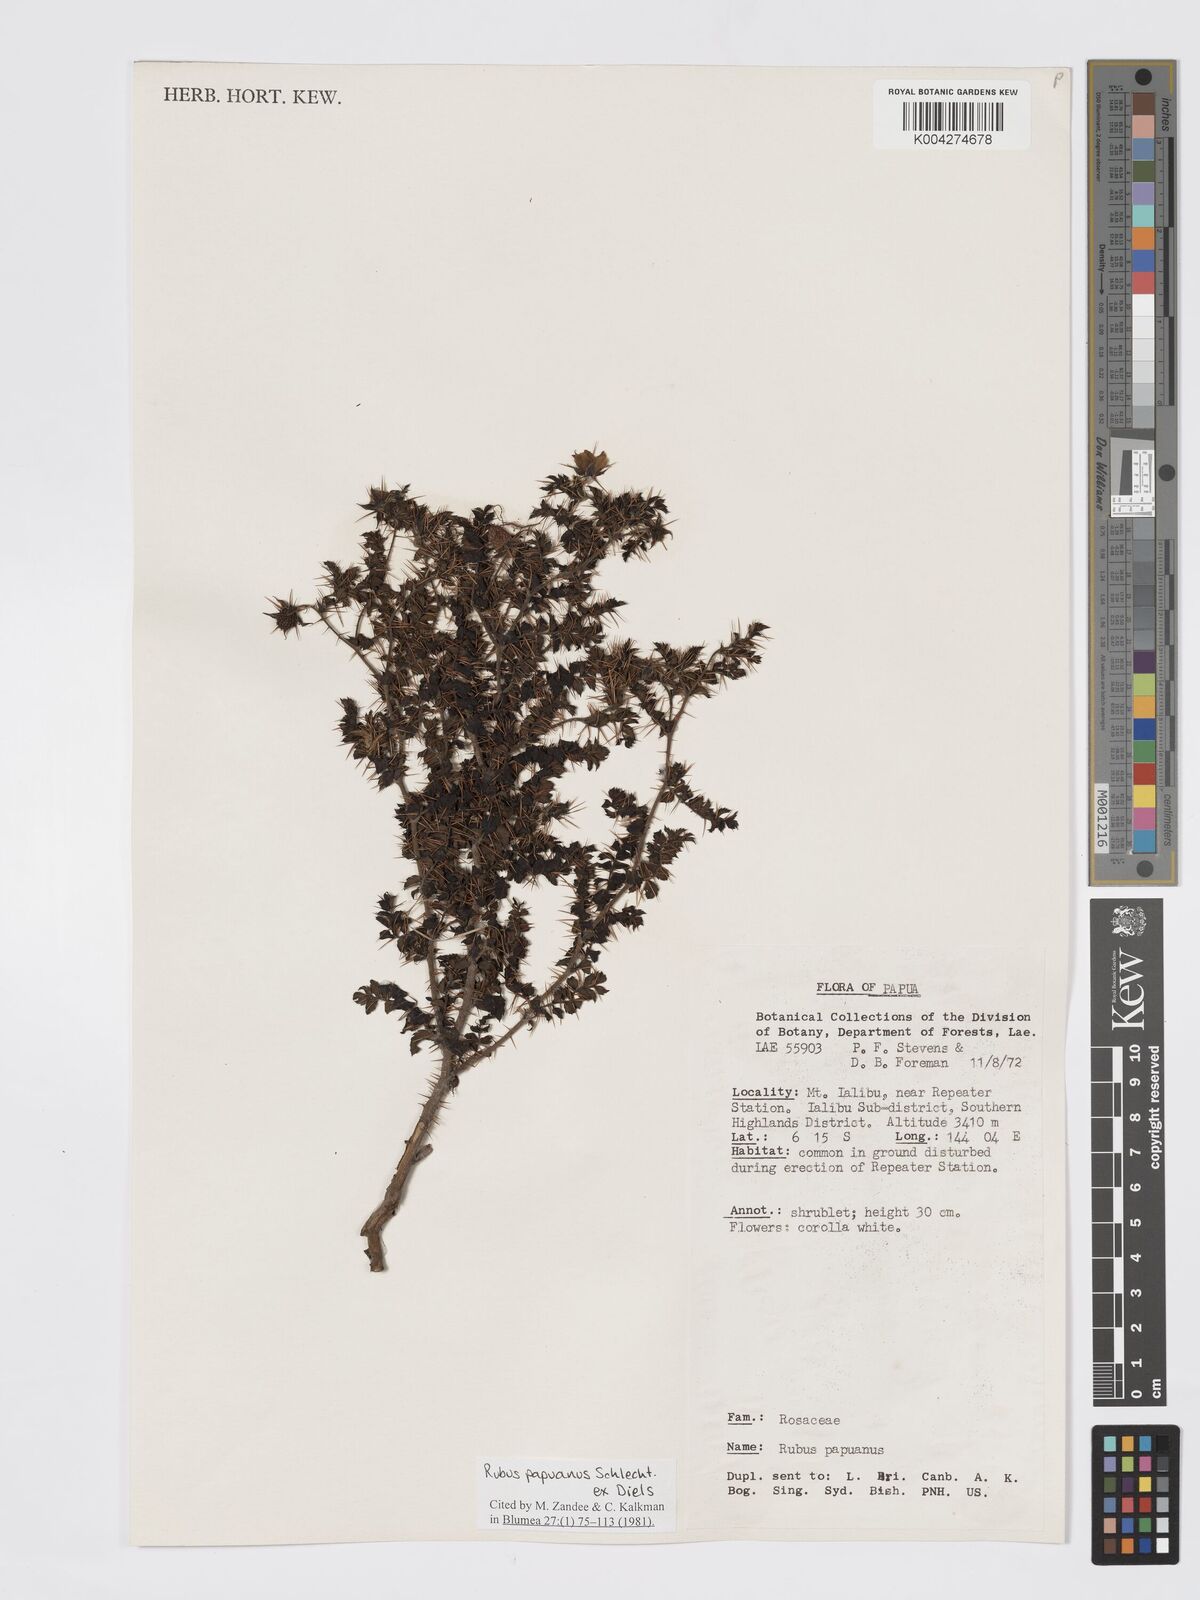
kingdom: Plantae
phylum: Tracheophyta
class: Magnoliopsida
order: Rosales
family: Rosaceae
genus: Rubus
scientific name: Rubus papuanus
